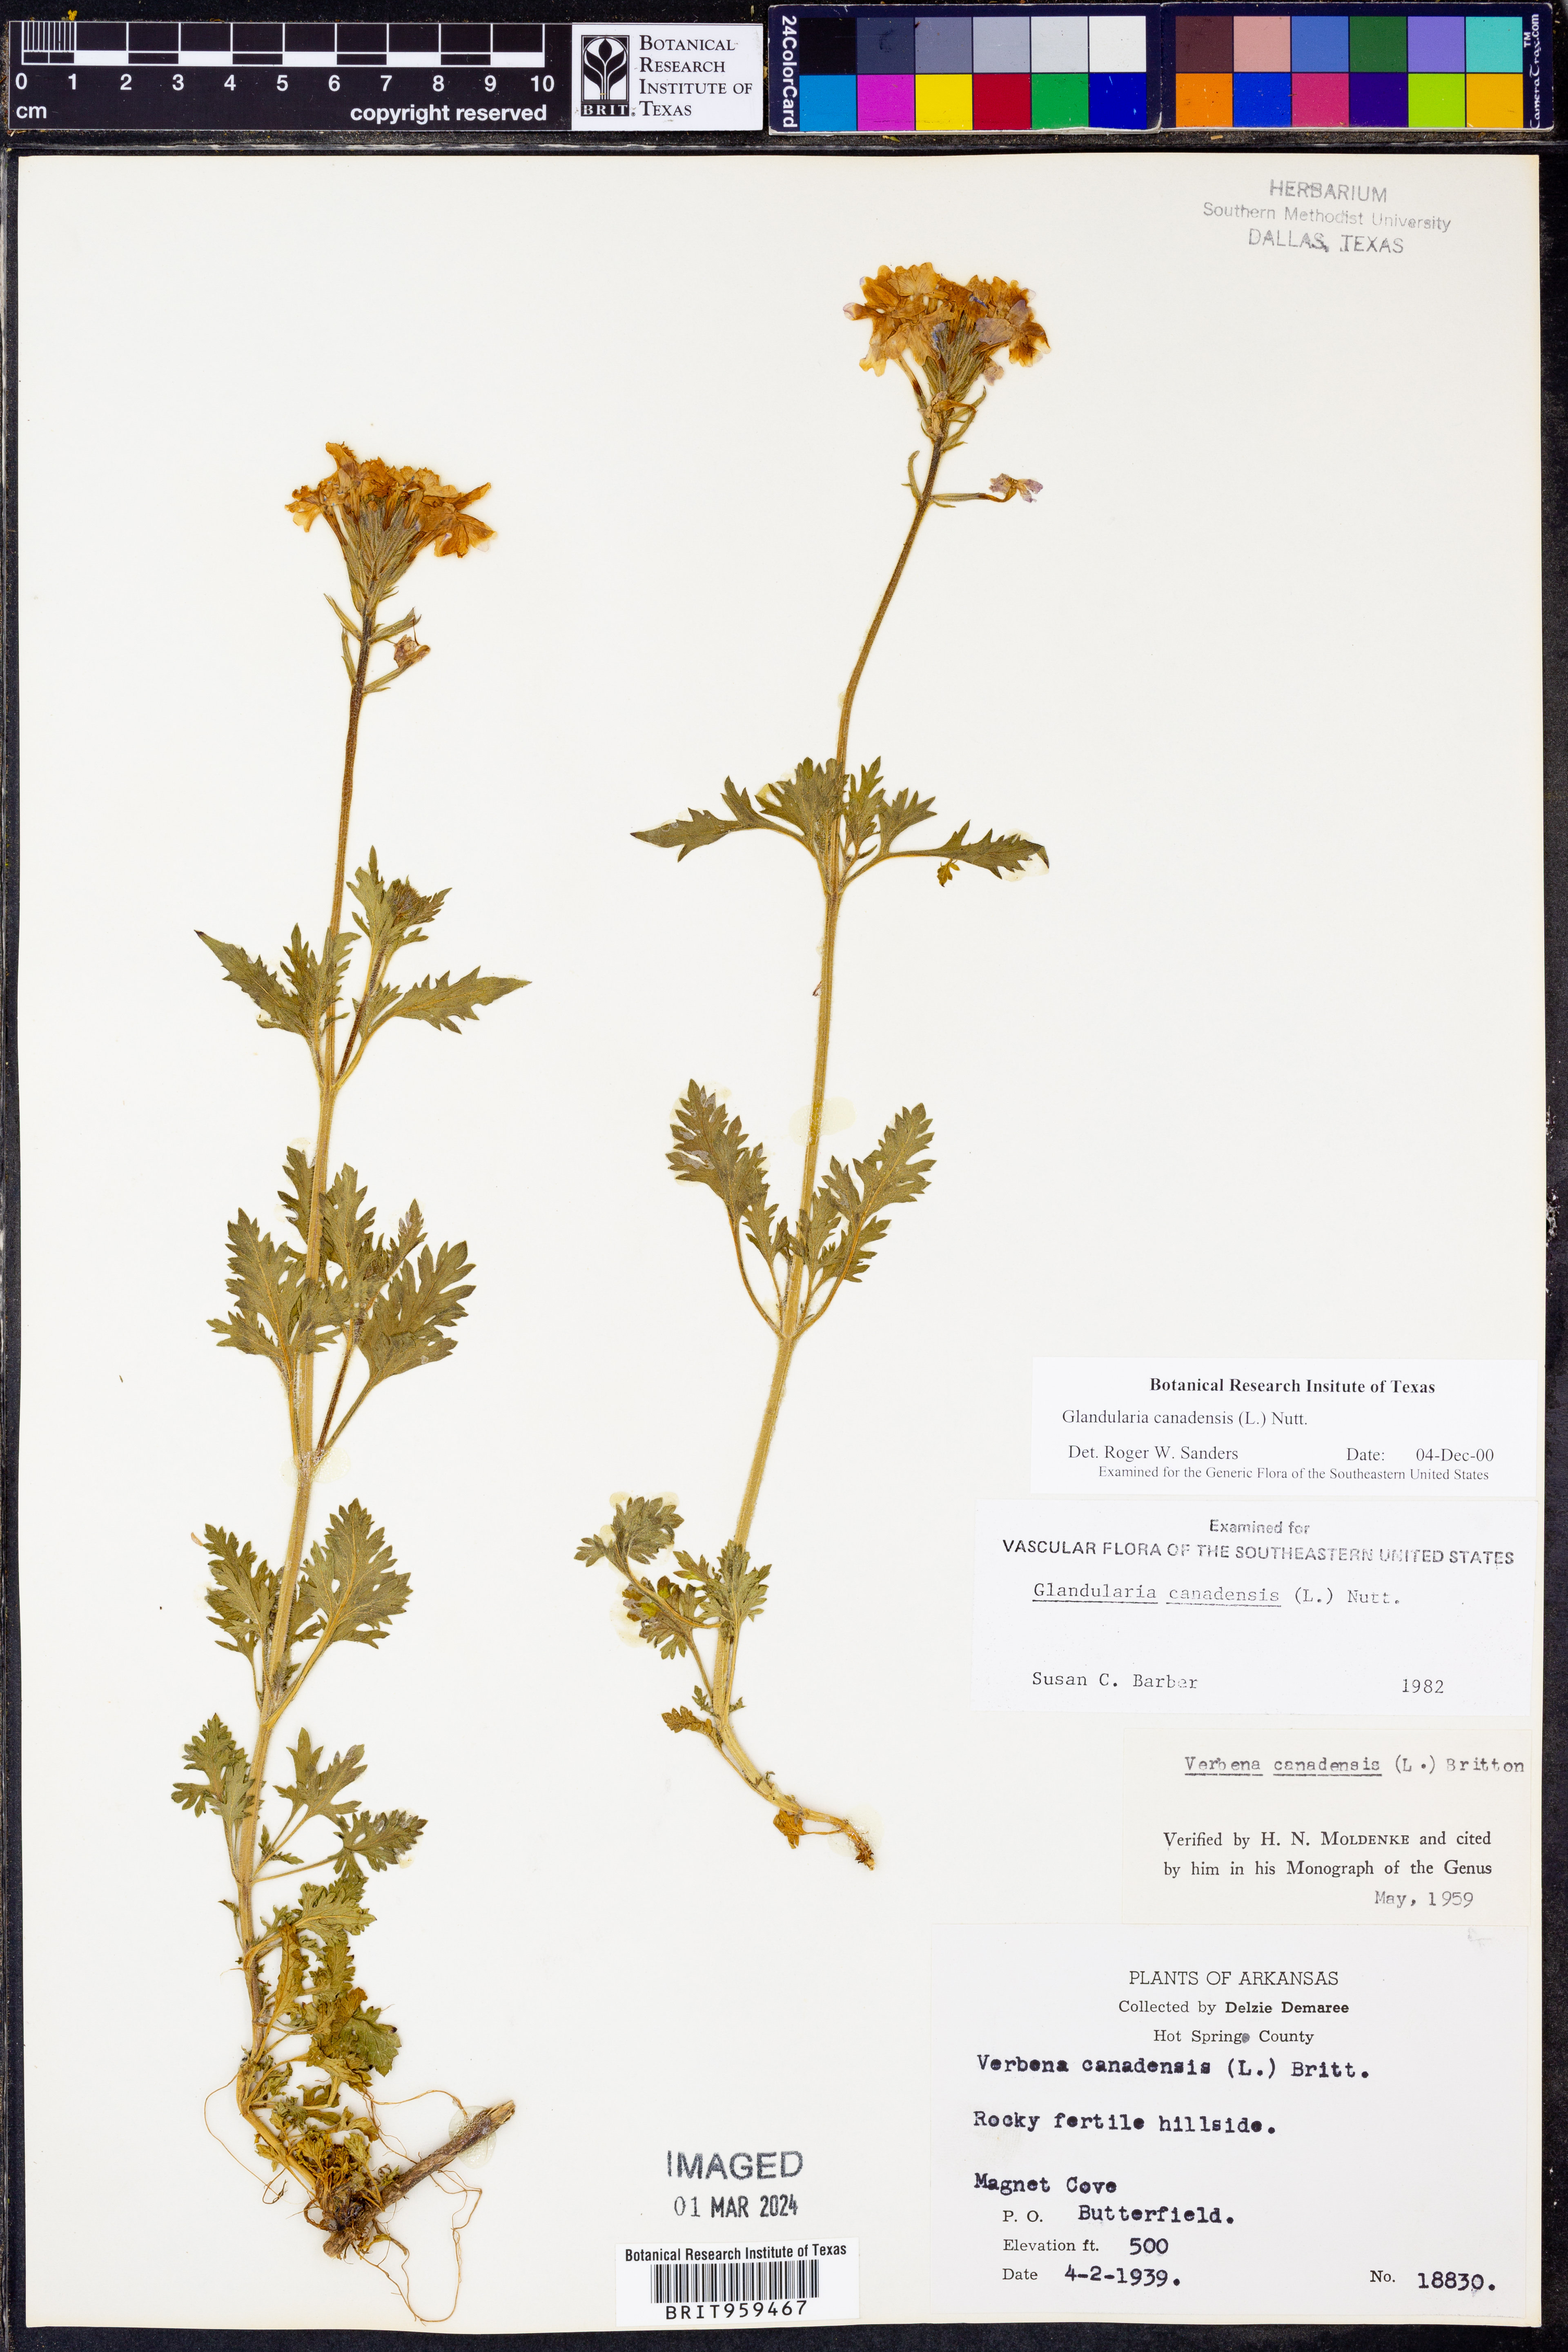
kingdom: Plantae
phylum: Tracheophyta
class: Magnoliopsida
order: Lamiales
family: Verbenaceae
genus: Verbena
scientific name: Verbena canadensis
